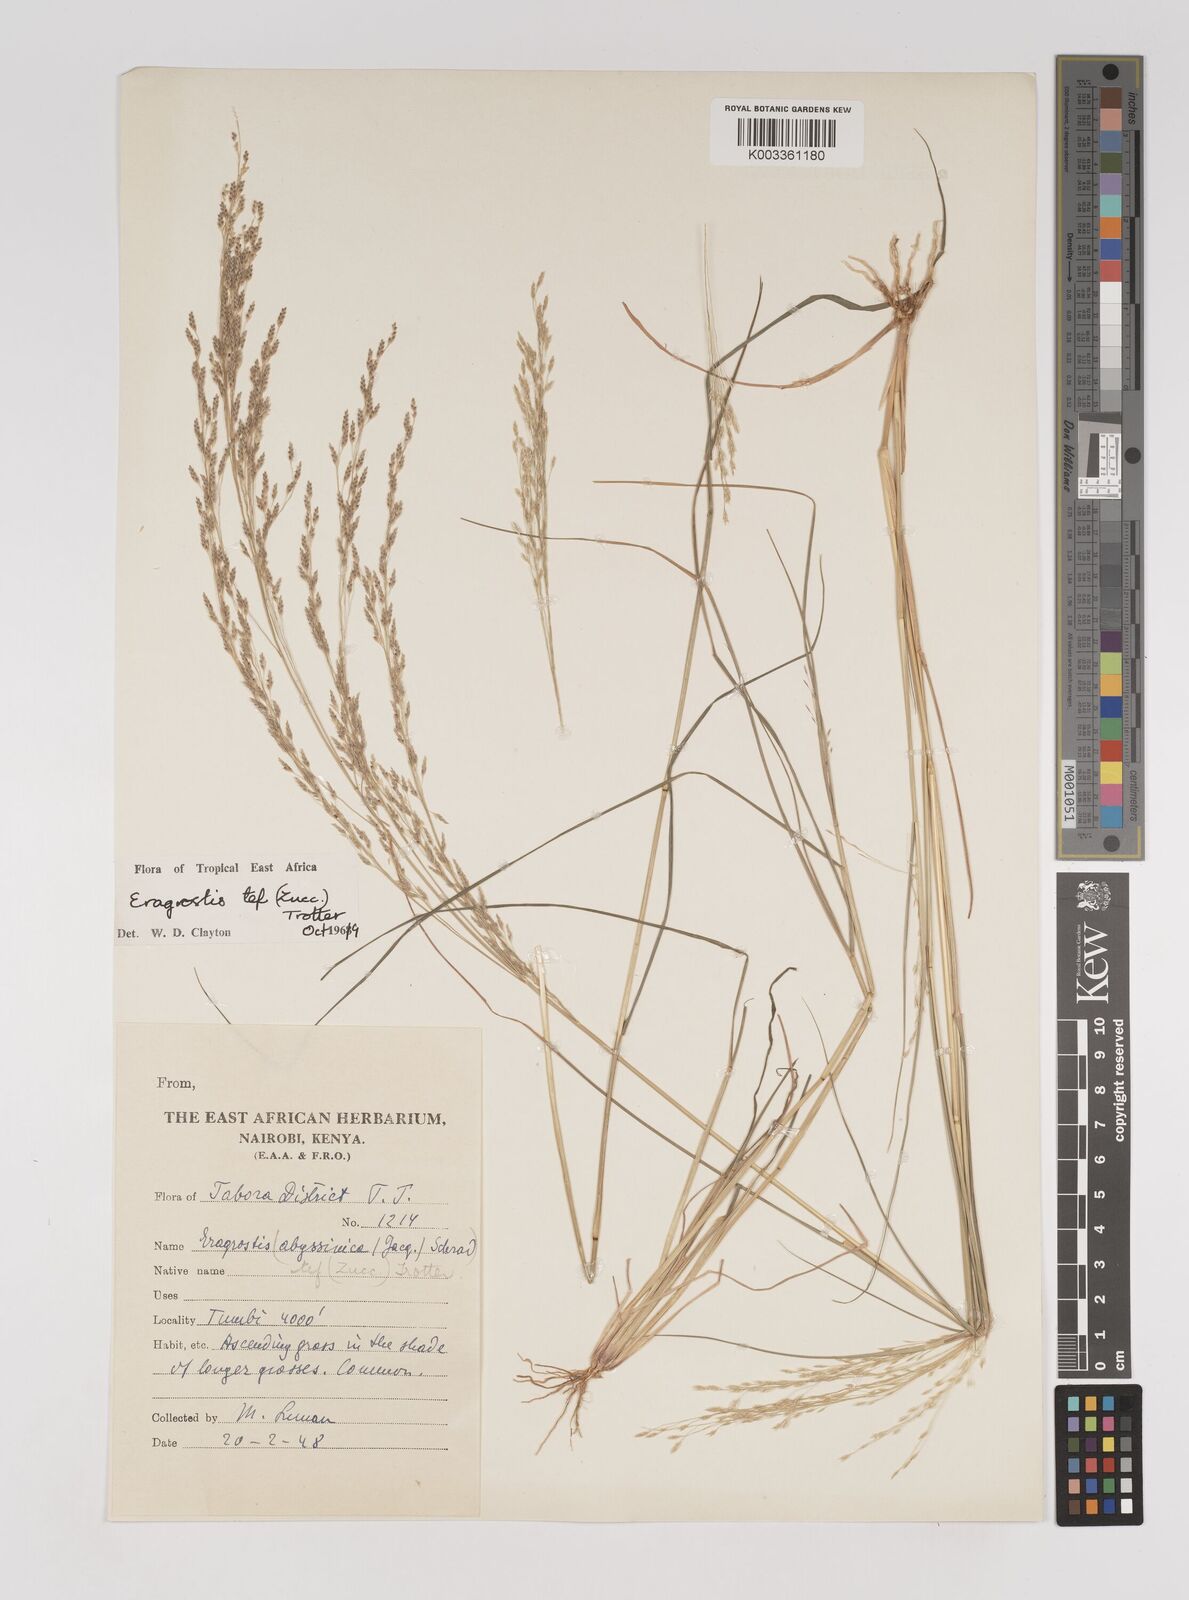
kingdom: Plantae
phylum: Tracheophyta
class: Liliopsida
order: Poales
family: Poaceae
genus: Eragrostis
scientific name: Eragrostis tef
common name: Teff
